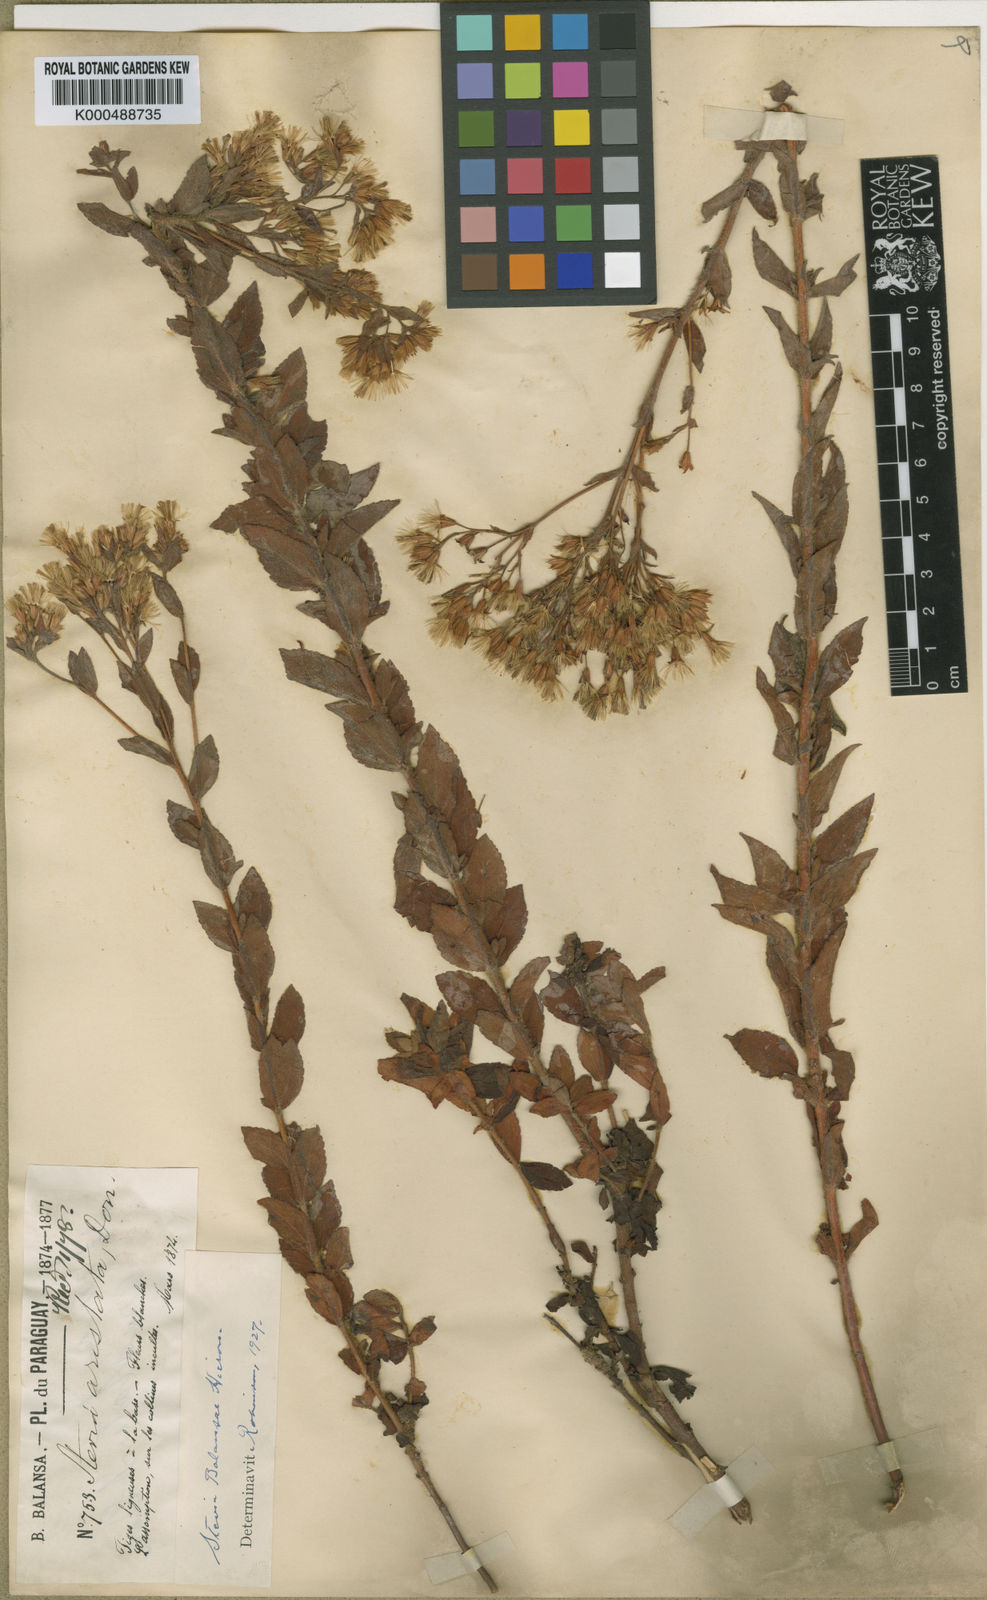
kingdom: Plantae
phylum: Tracheophyta
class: Magnoliopsida
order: Asterales
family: Asteraceae
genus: Stevia
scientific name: Stevia balansae
